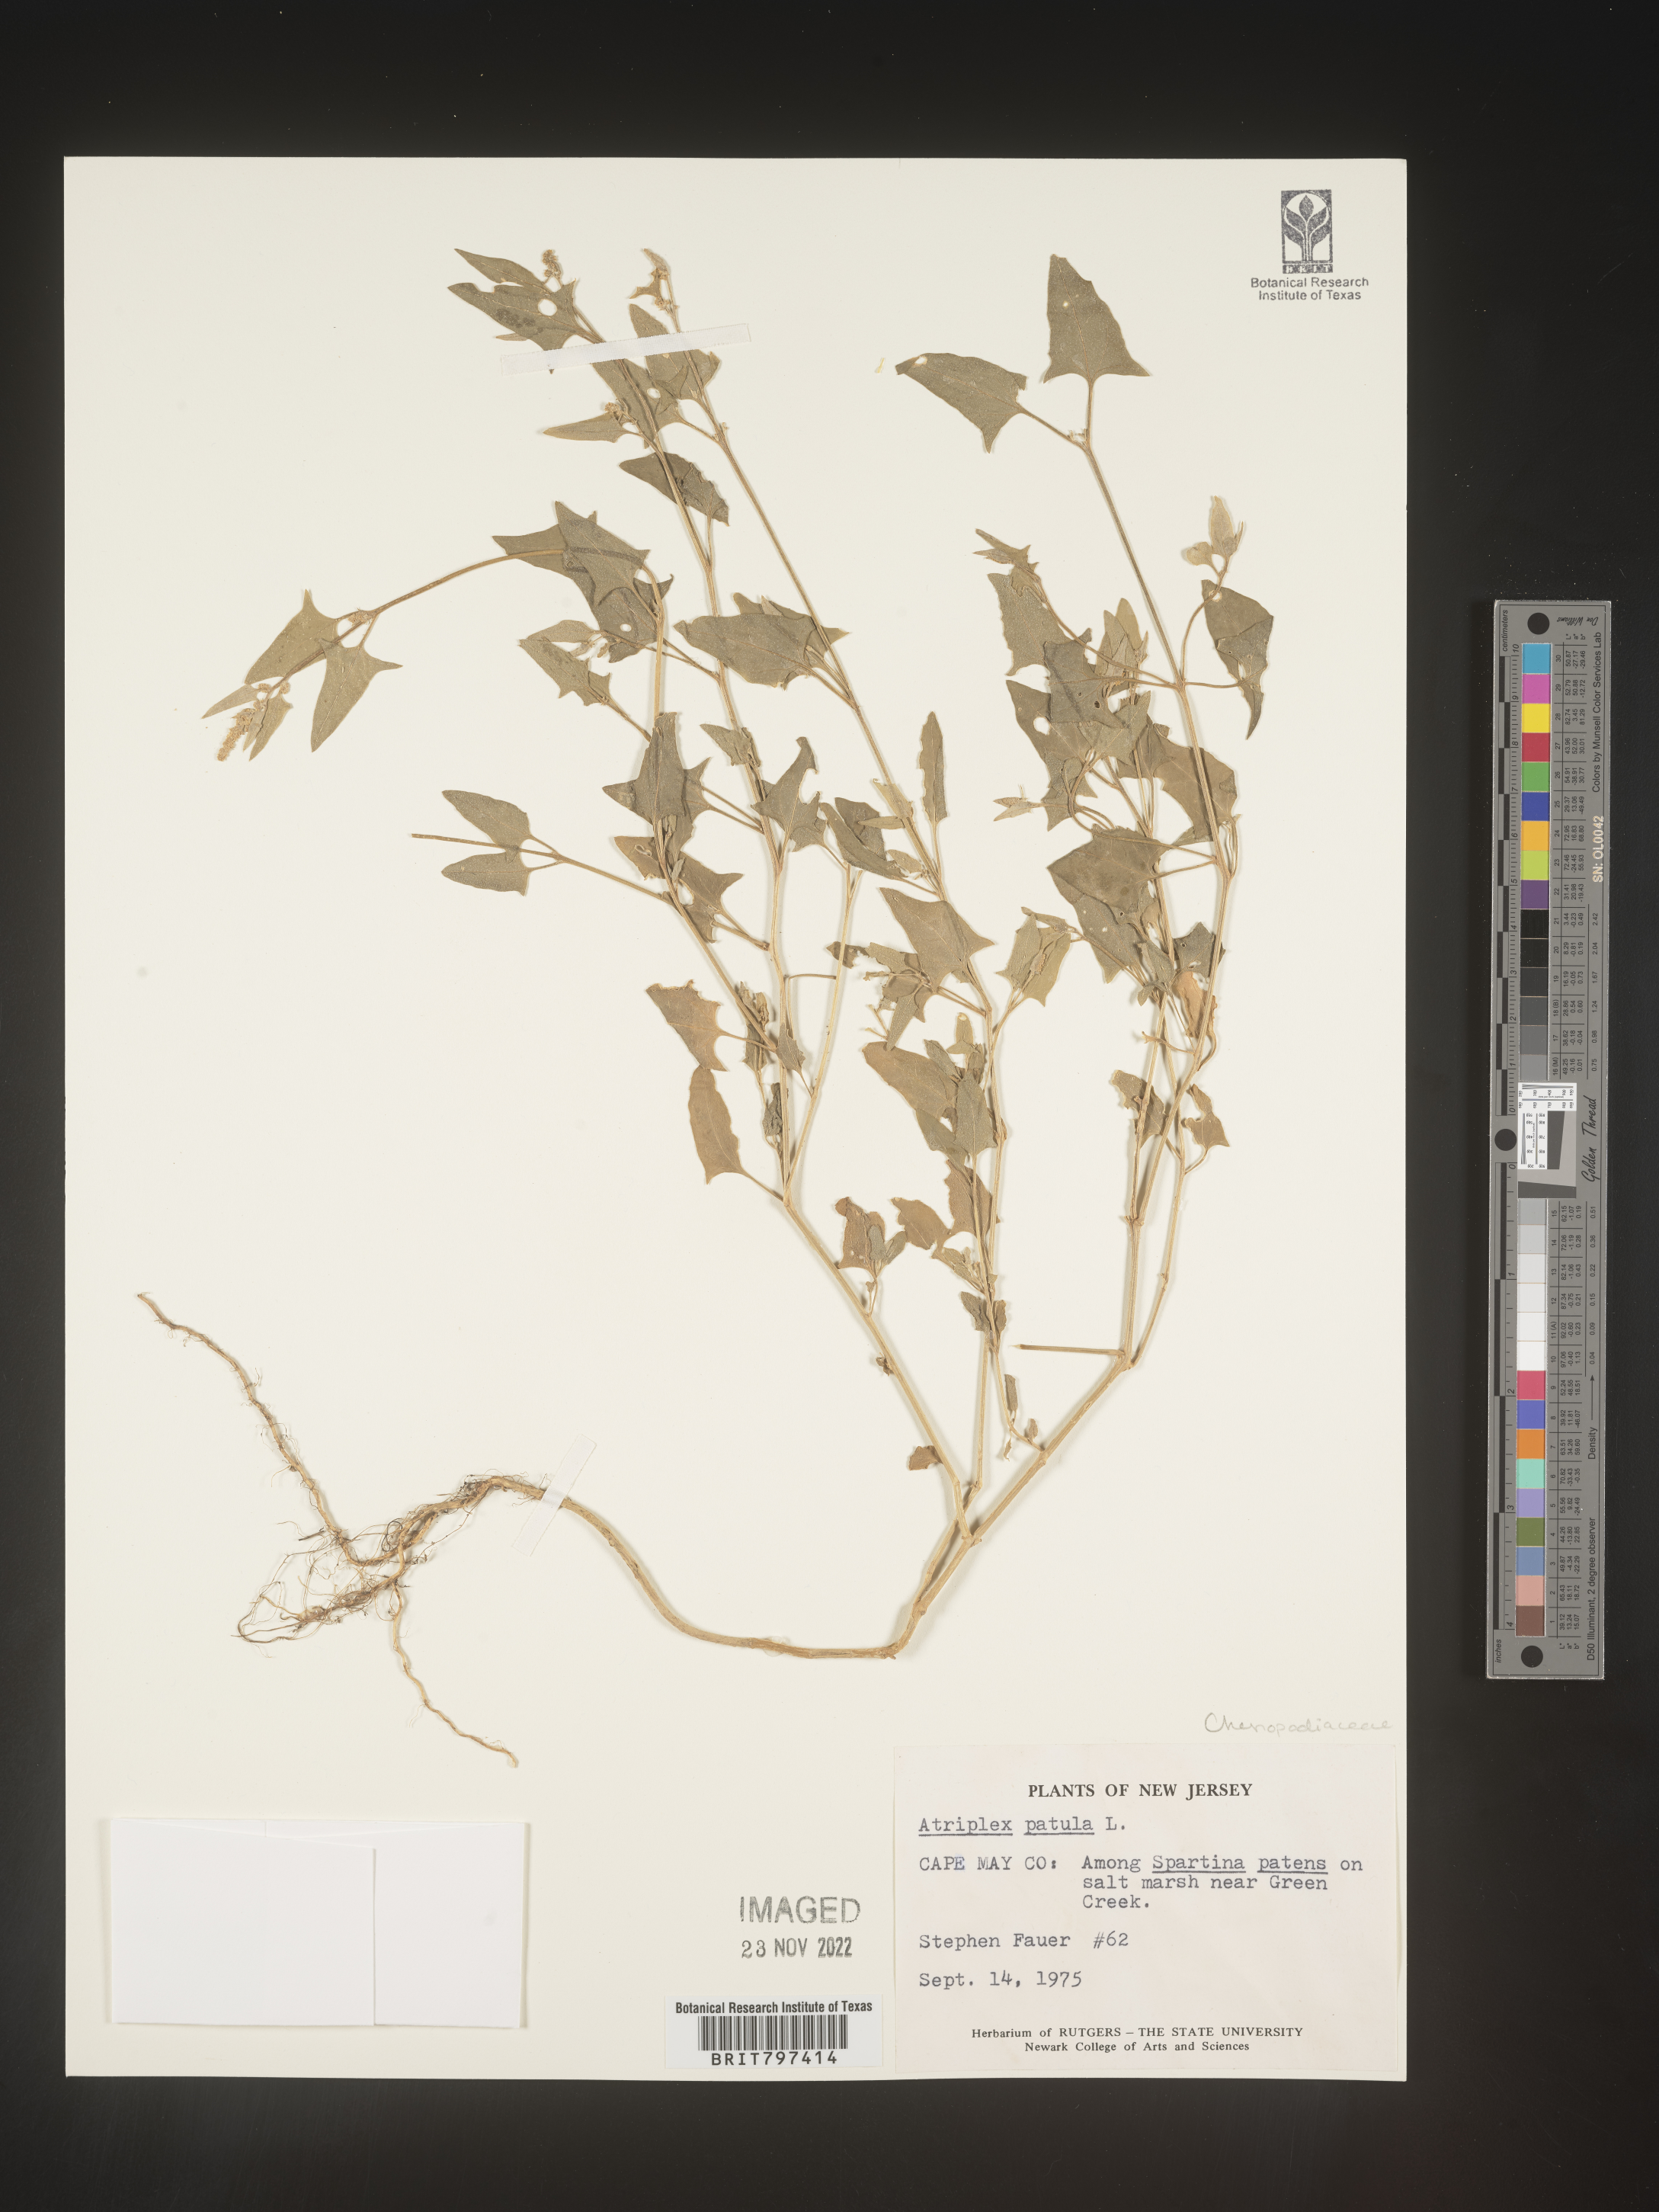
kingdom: Plantae
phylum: Tracheophyta
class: Magnoliopsida
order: Caryophyllales
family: Amaranthaceae
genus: Atriplex
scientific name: Atriplex prostrata
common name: Spear-leaved orache
